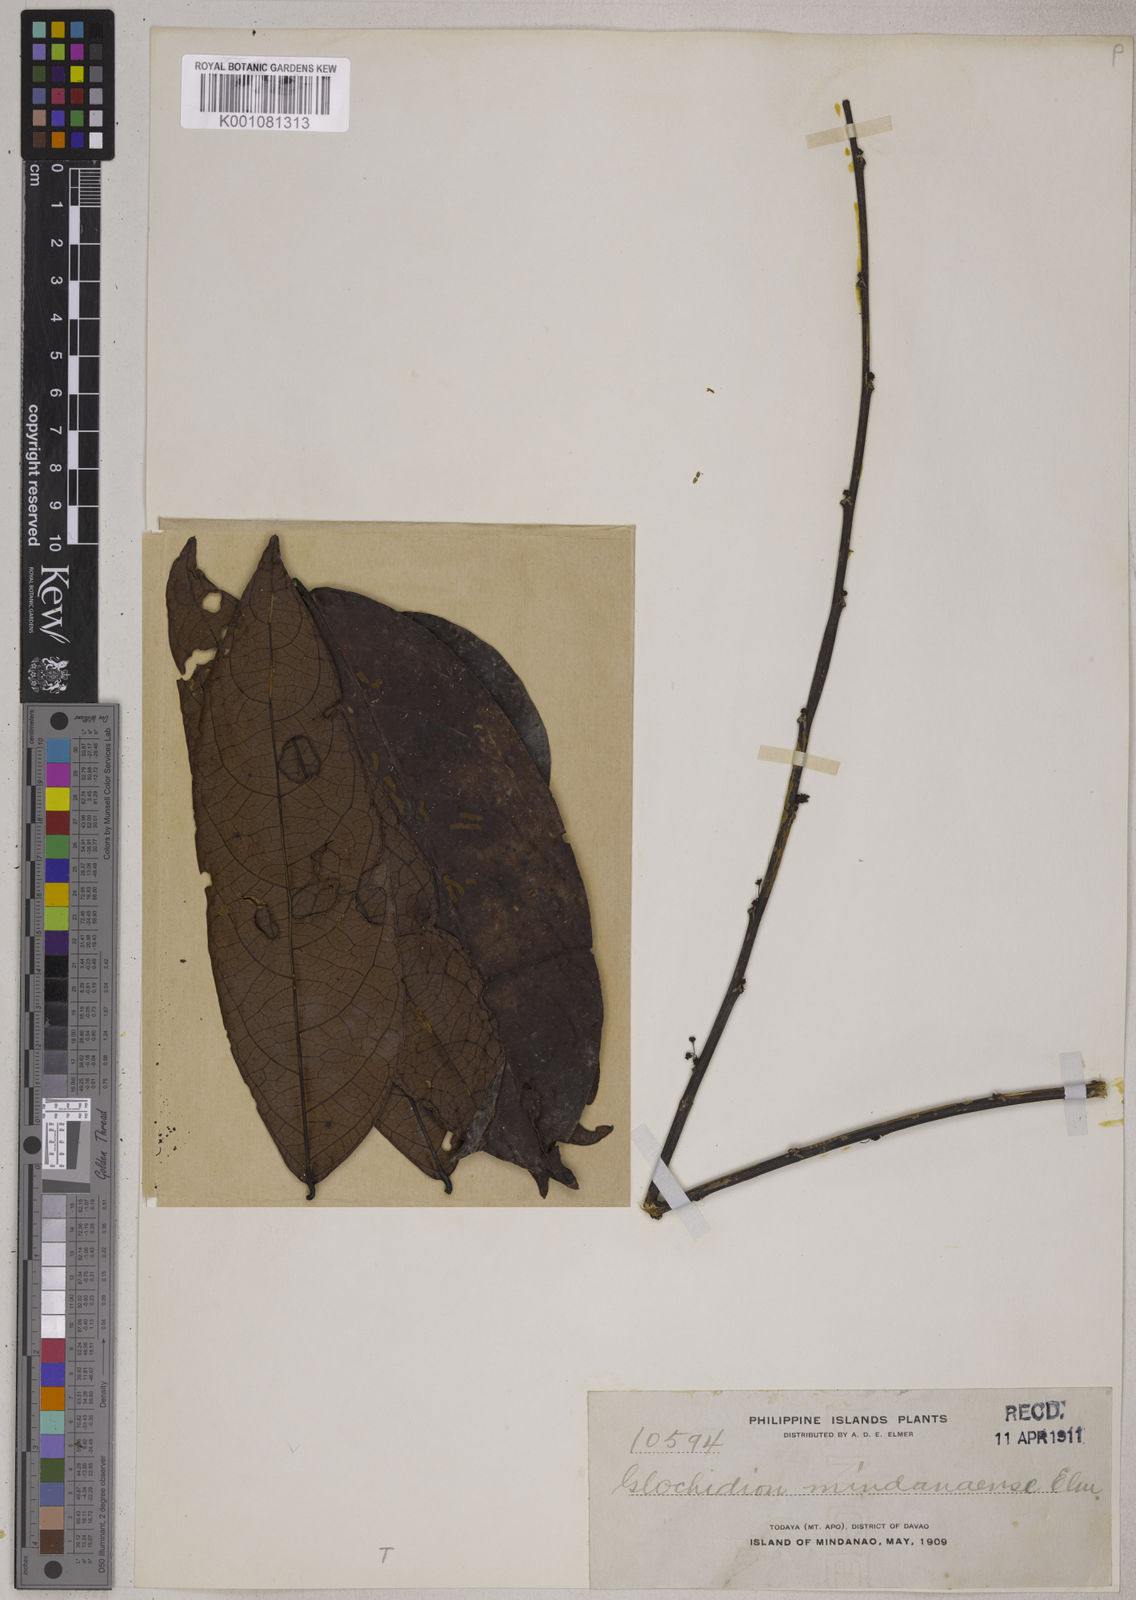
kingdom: Plantae
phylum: Tracheophyta
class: Magnoliopsida
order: Malpighiales
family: Phyllanthaceae
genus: Glochidion
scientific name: Glochidion album
